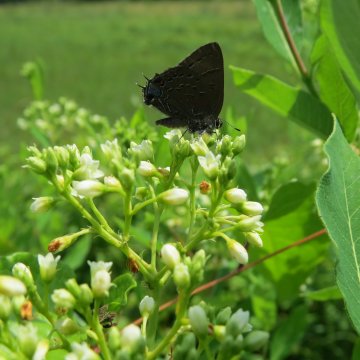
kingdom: Animalia
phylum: Arthropoda
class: Insecta
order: Lepidoptera
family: Lycaenidae
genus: Satyrium
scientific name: Satyrium calanus
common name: Banded Hairstreak
